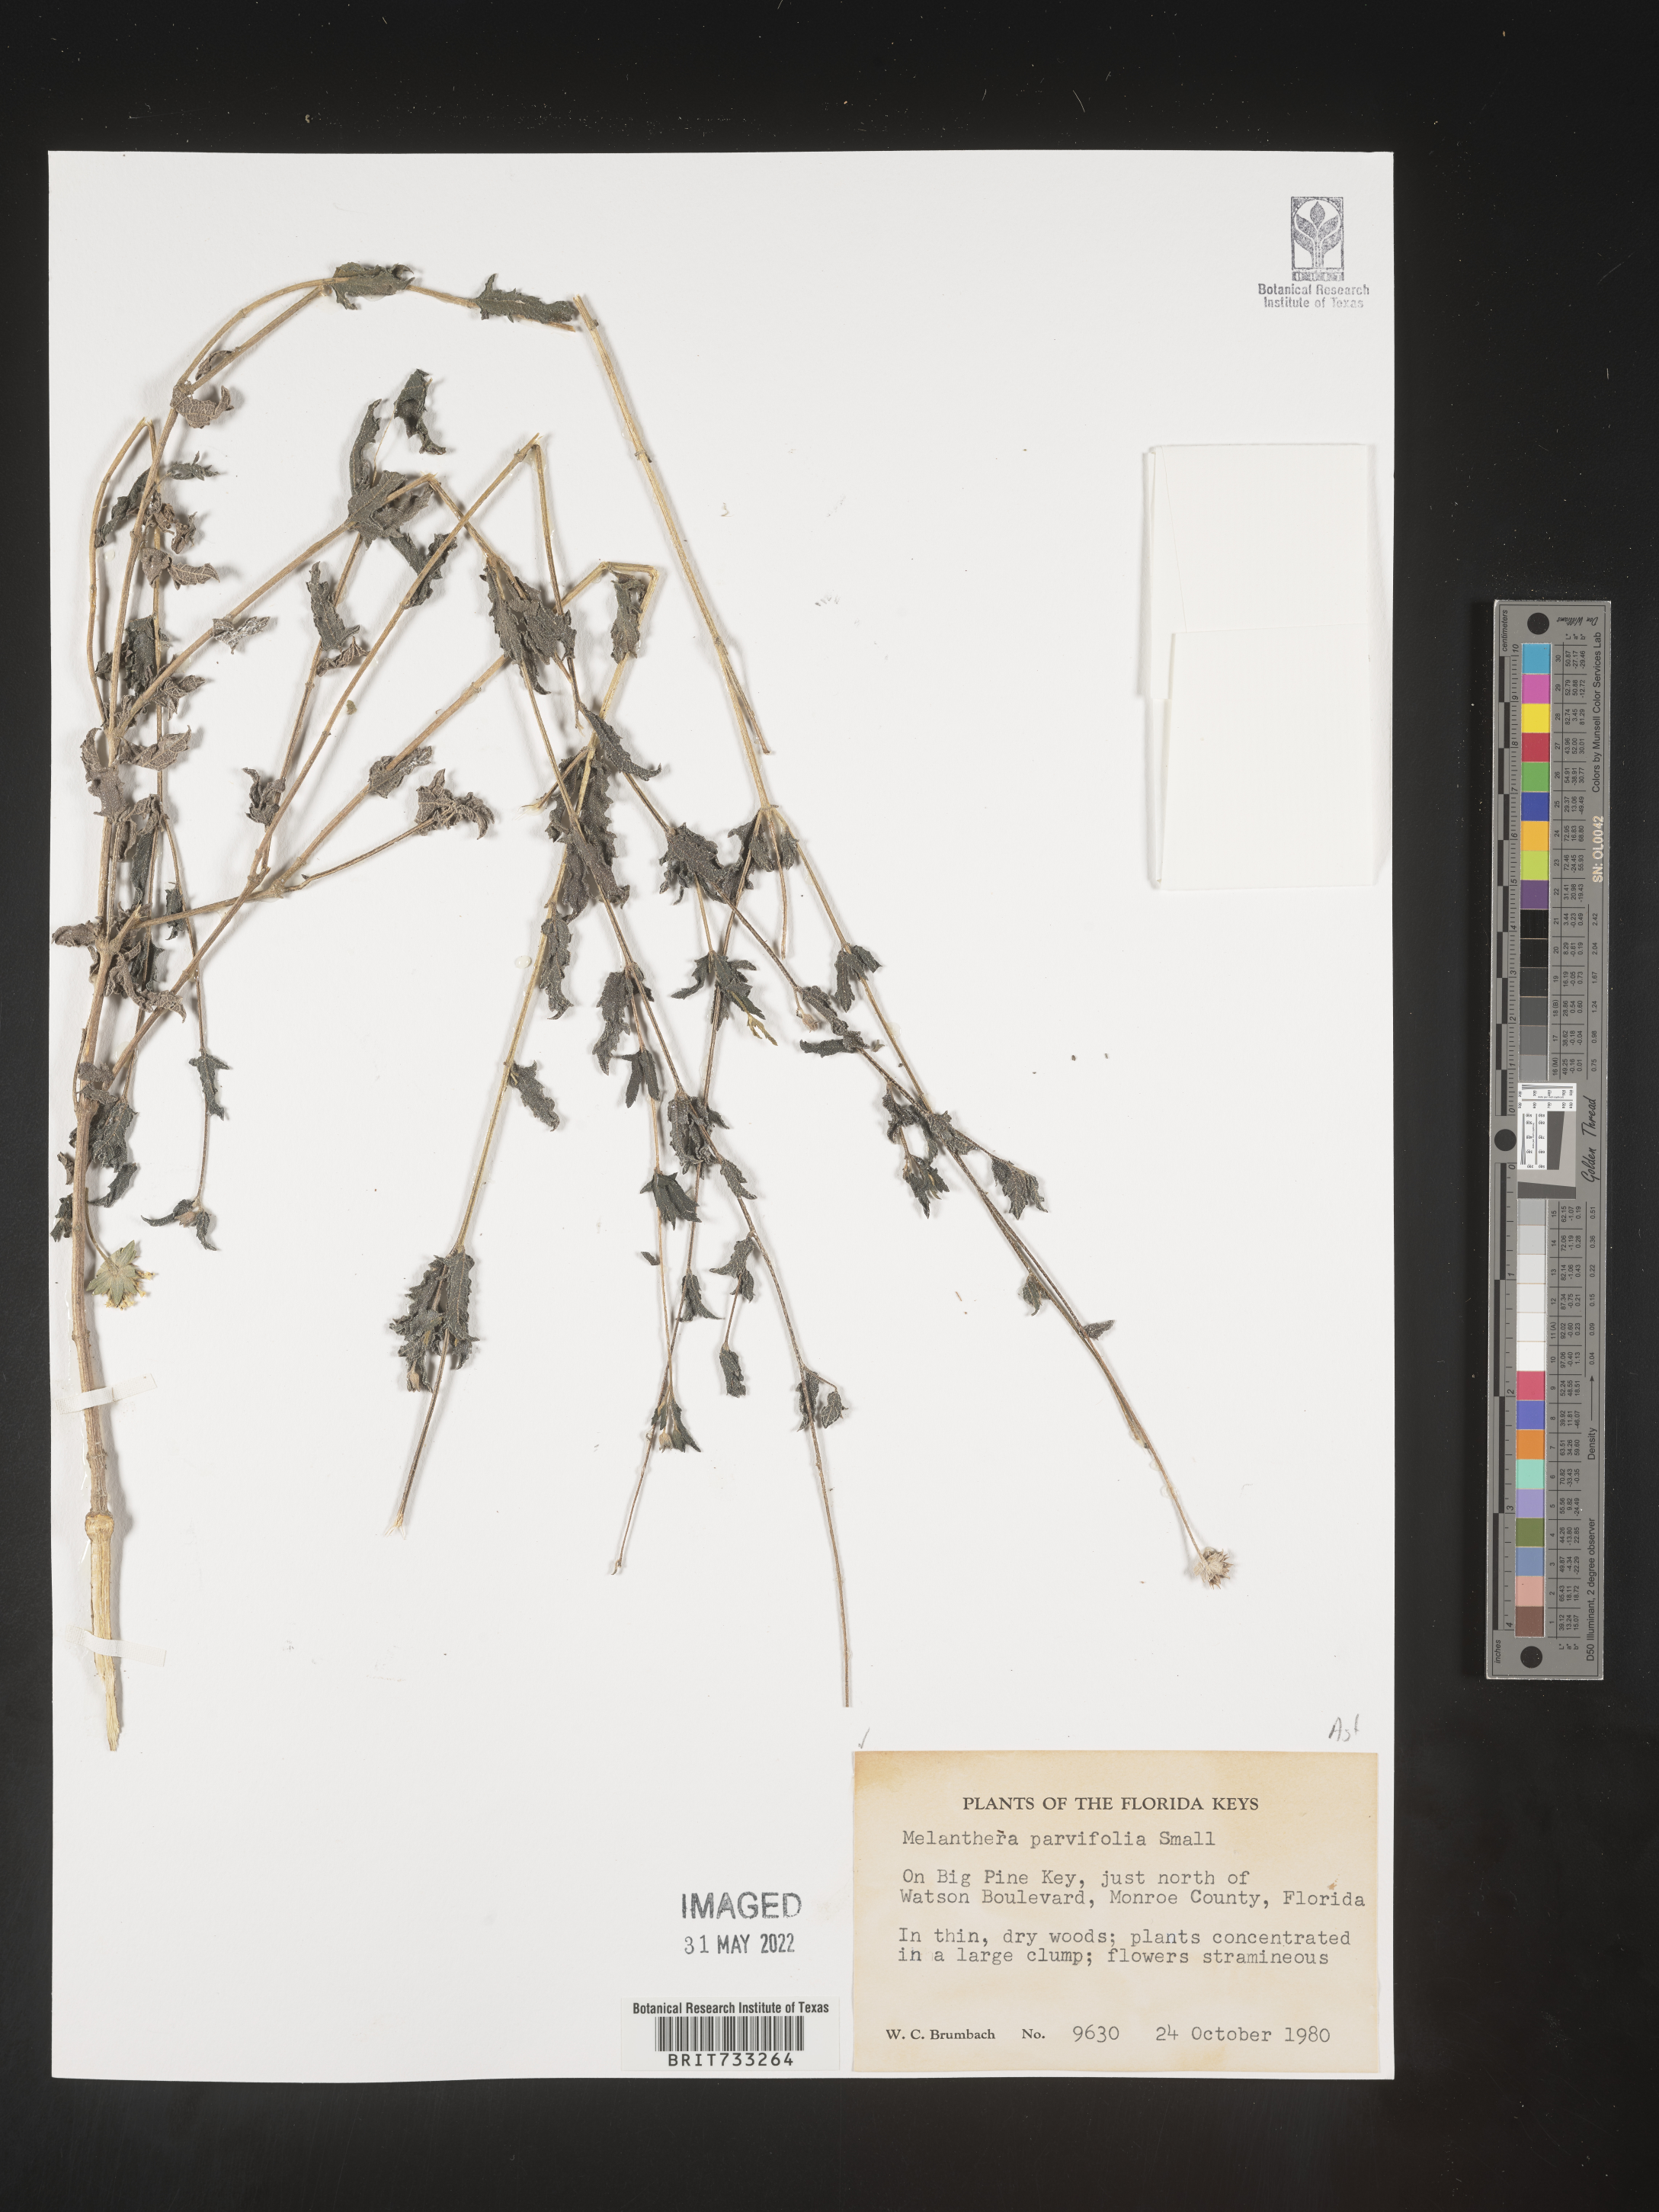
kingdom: Plantae
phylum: Tracheophyta
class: Magnoliopsida
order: Asterales
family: Asteraceae
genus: Melanthera
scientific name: Melanthera parvifolia
